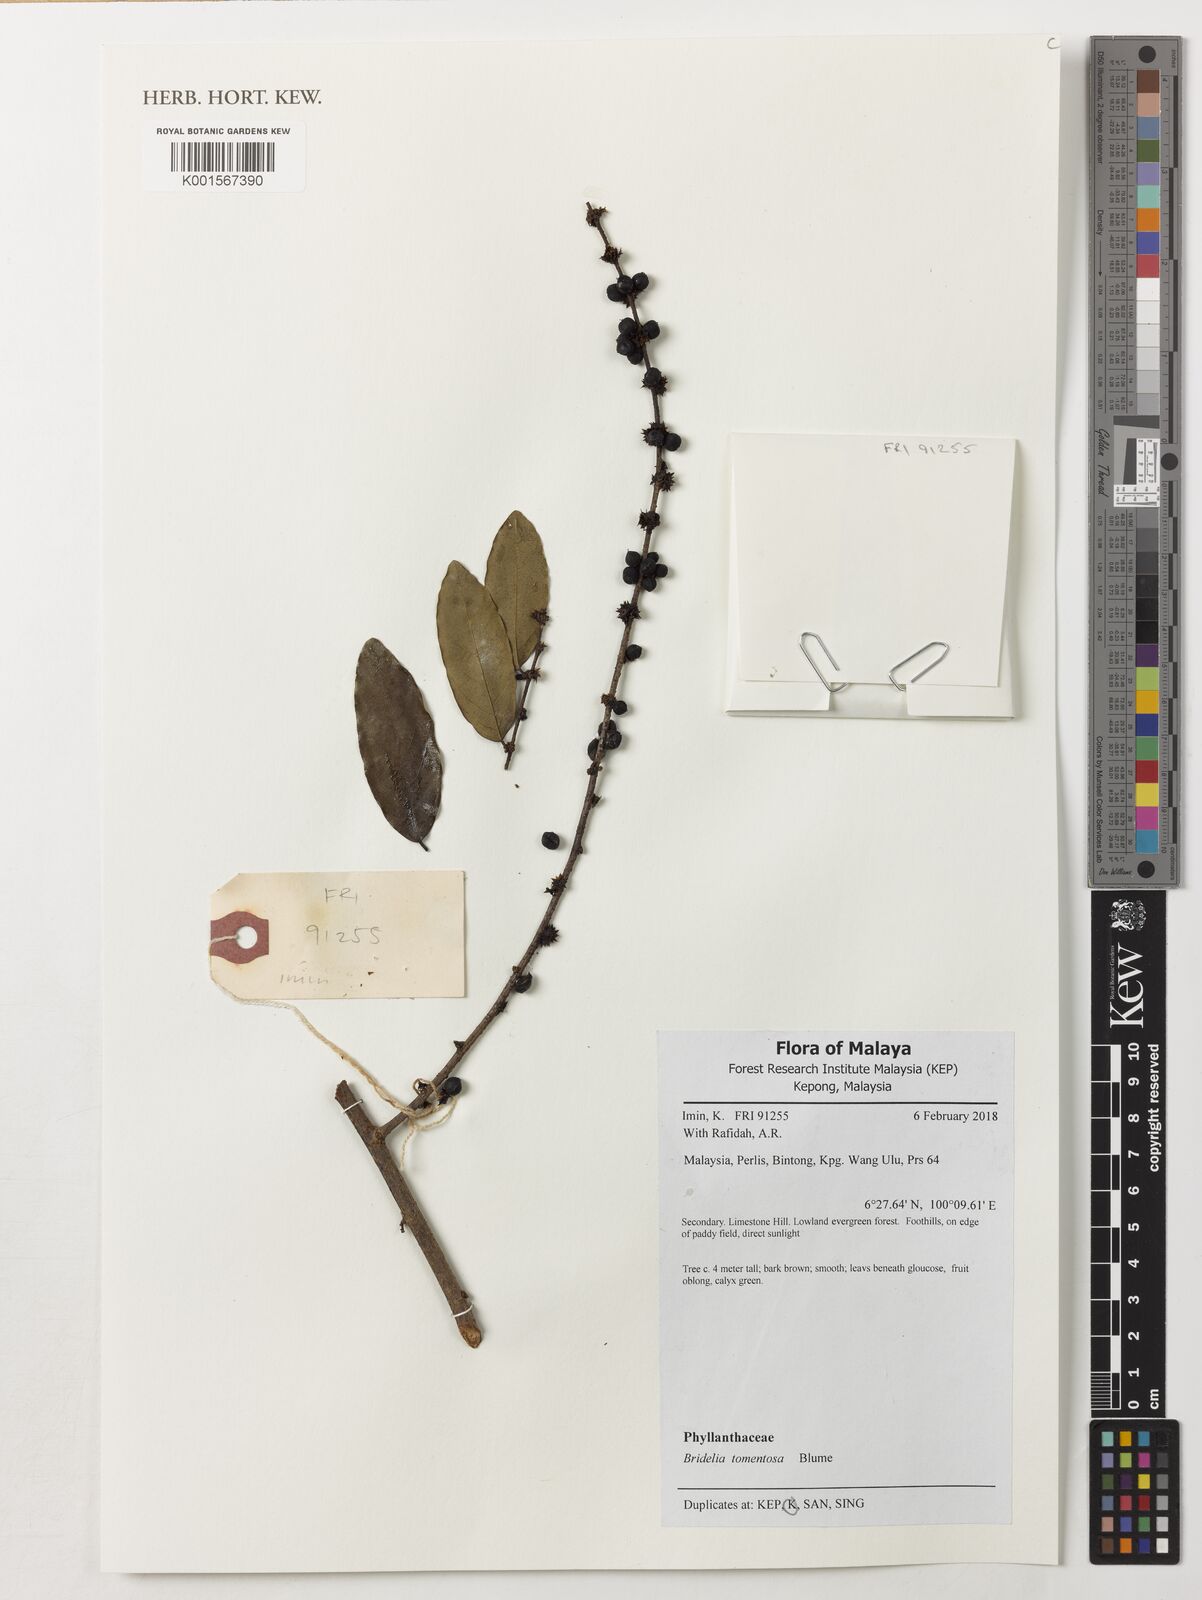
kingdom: Plantae
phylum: Tracheophyta
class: Magnoliopsida
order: Malpighiales
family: Phyllanthaceae
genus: Bridelia
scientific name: Bridelia tomentosa
